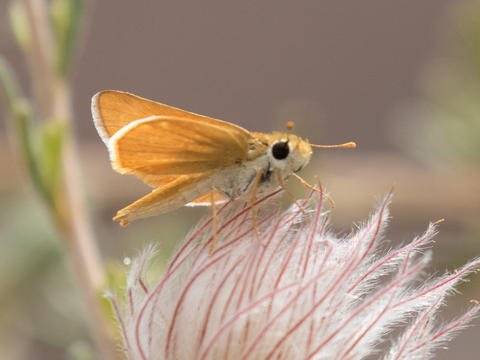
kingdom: Animalia
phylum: Arthropoda
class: Insecta
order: Lepidoptera
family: Hesperiidae
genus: Copaeodes
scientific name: Copaeodes aurantiaca
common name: Orange Skipperling
